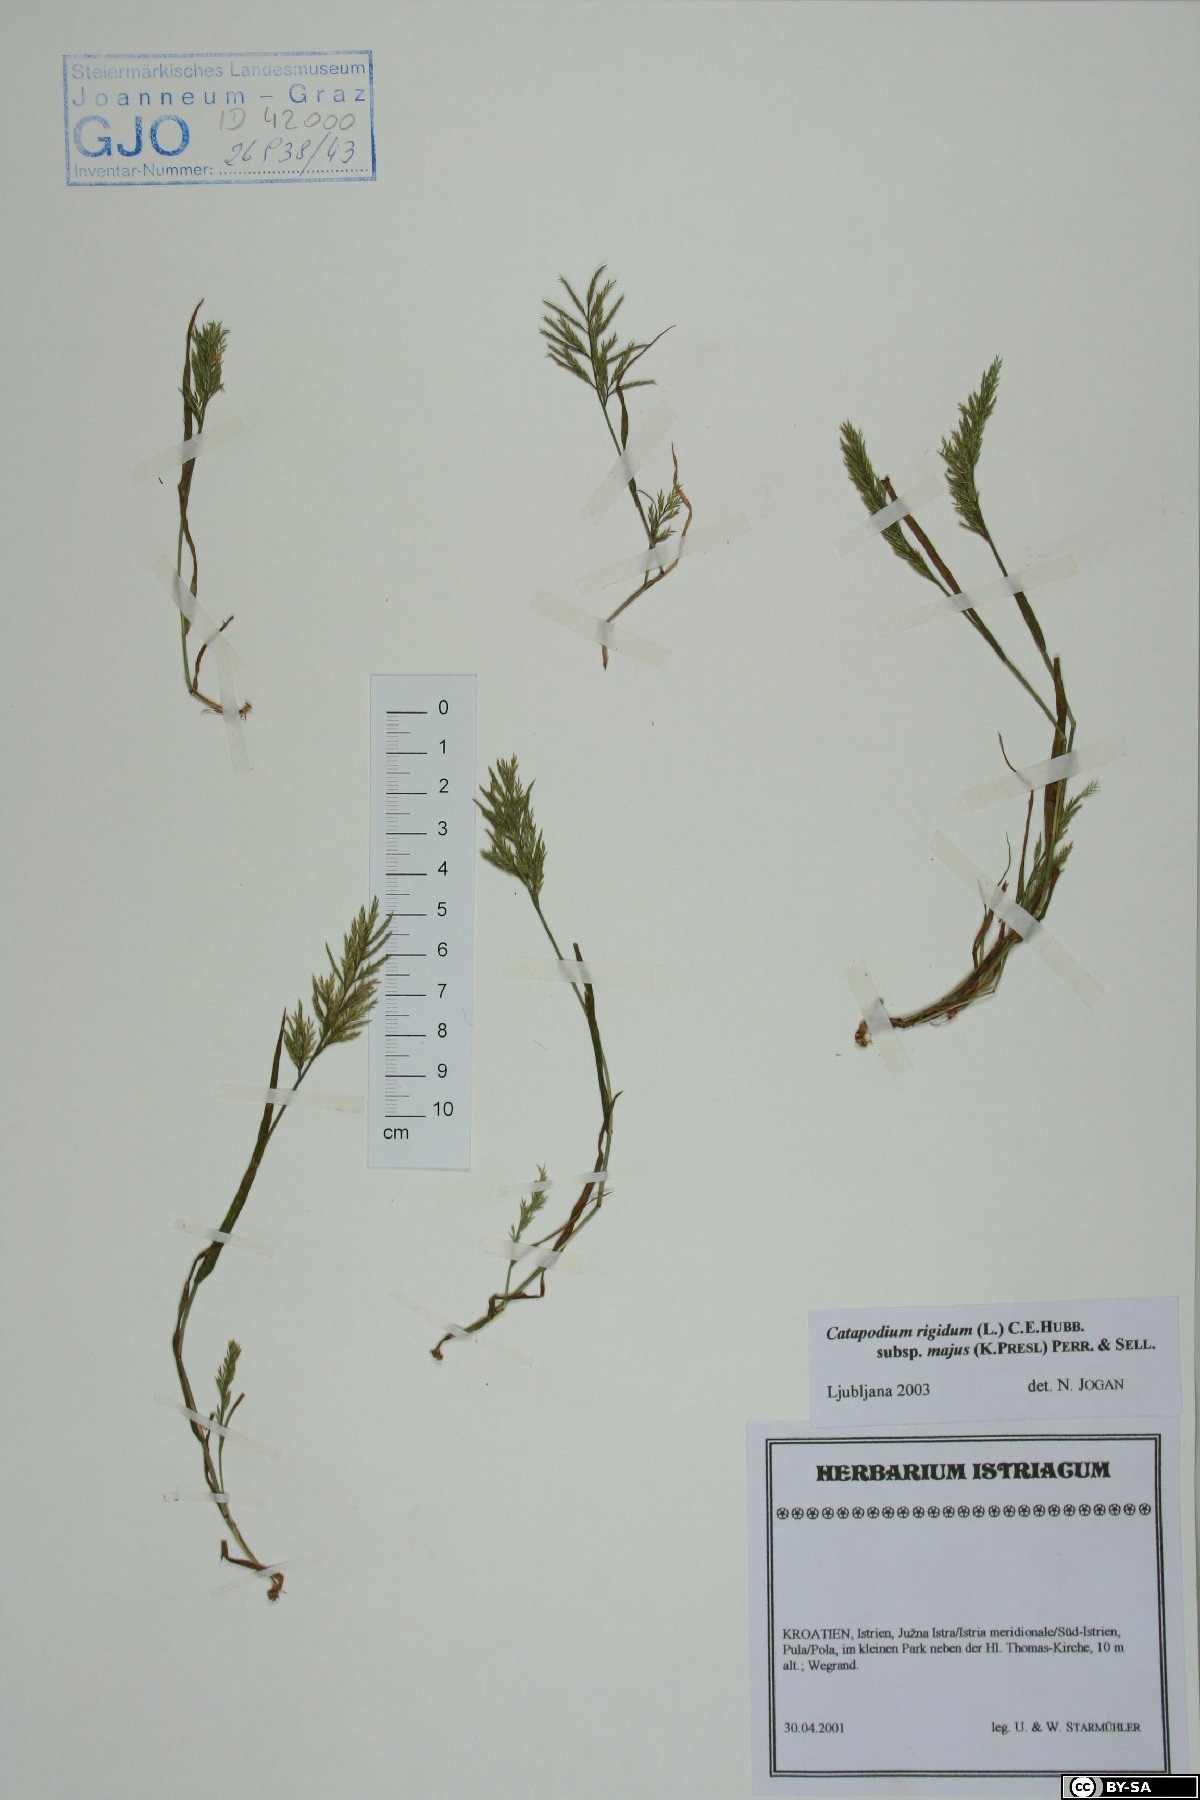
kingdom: Plantae
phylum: Tracheophyta
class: Liliopsida
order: Poales
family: Poaceae
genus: Catapodium
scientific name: Catapodium rigidum
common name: Fern-grass
